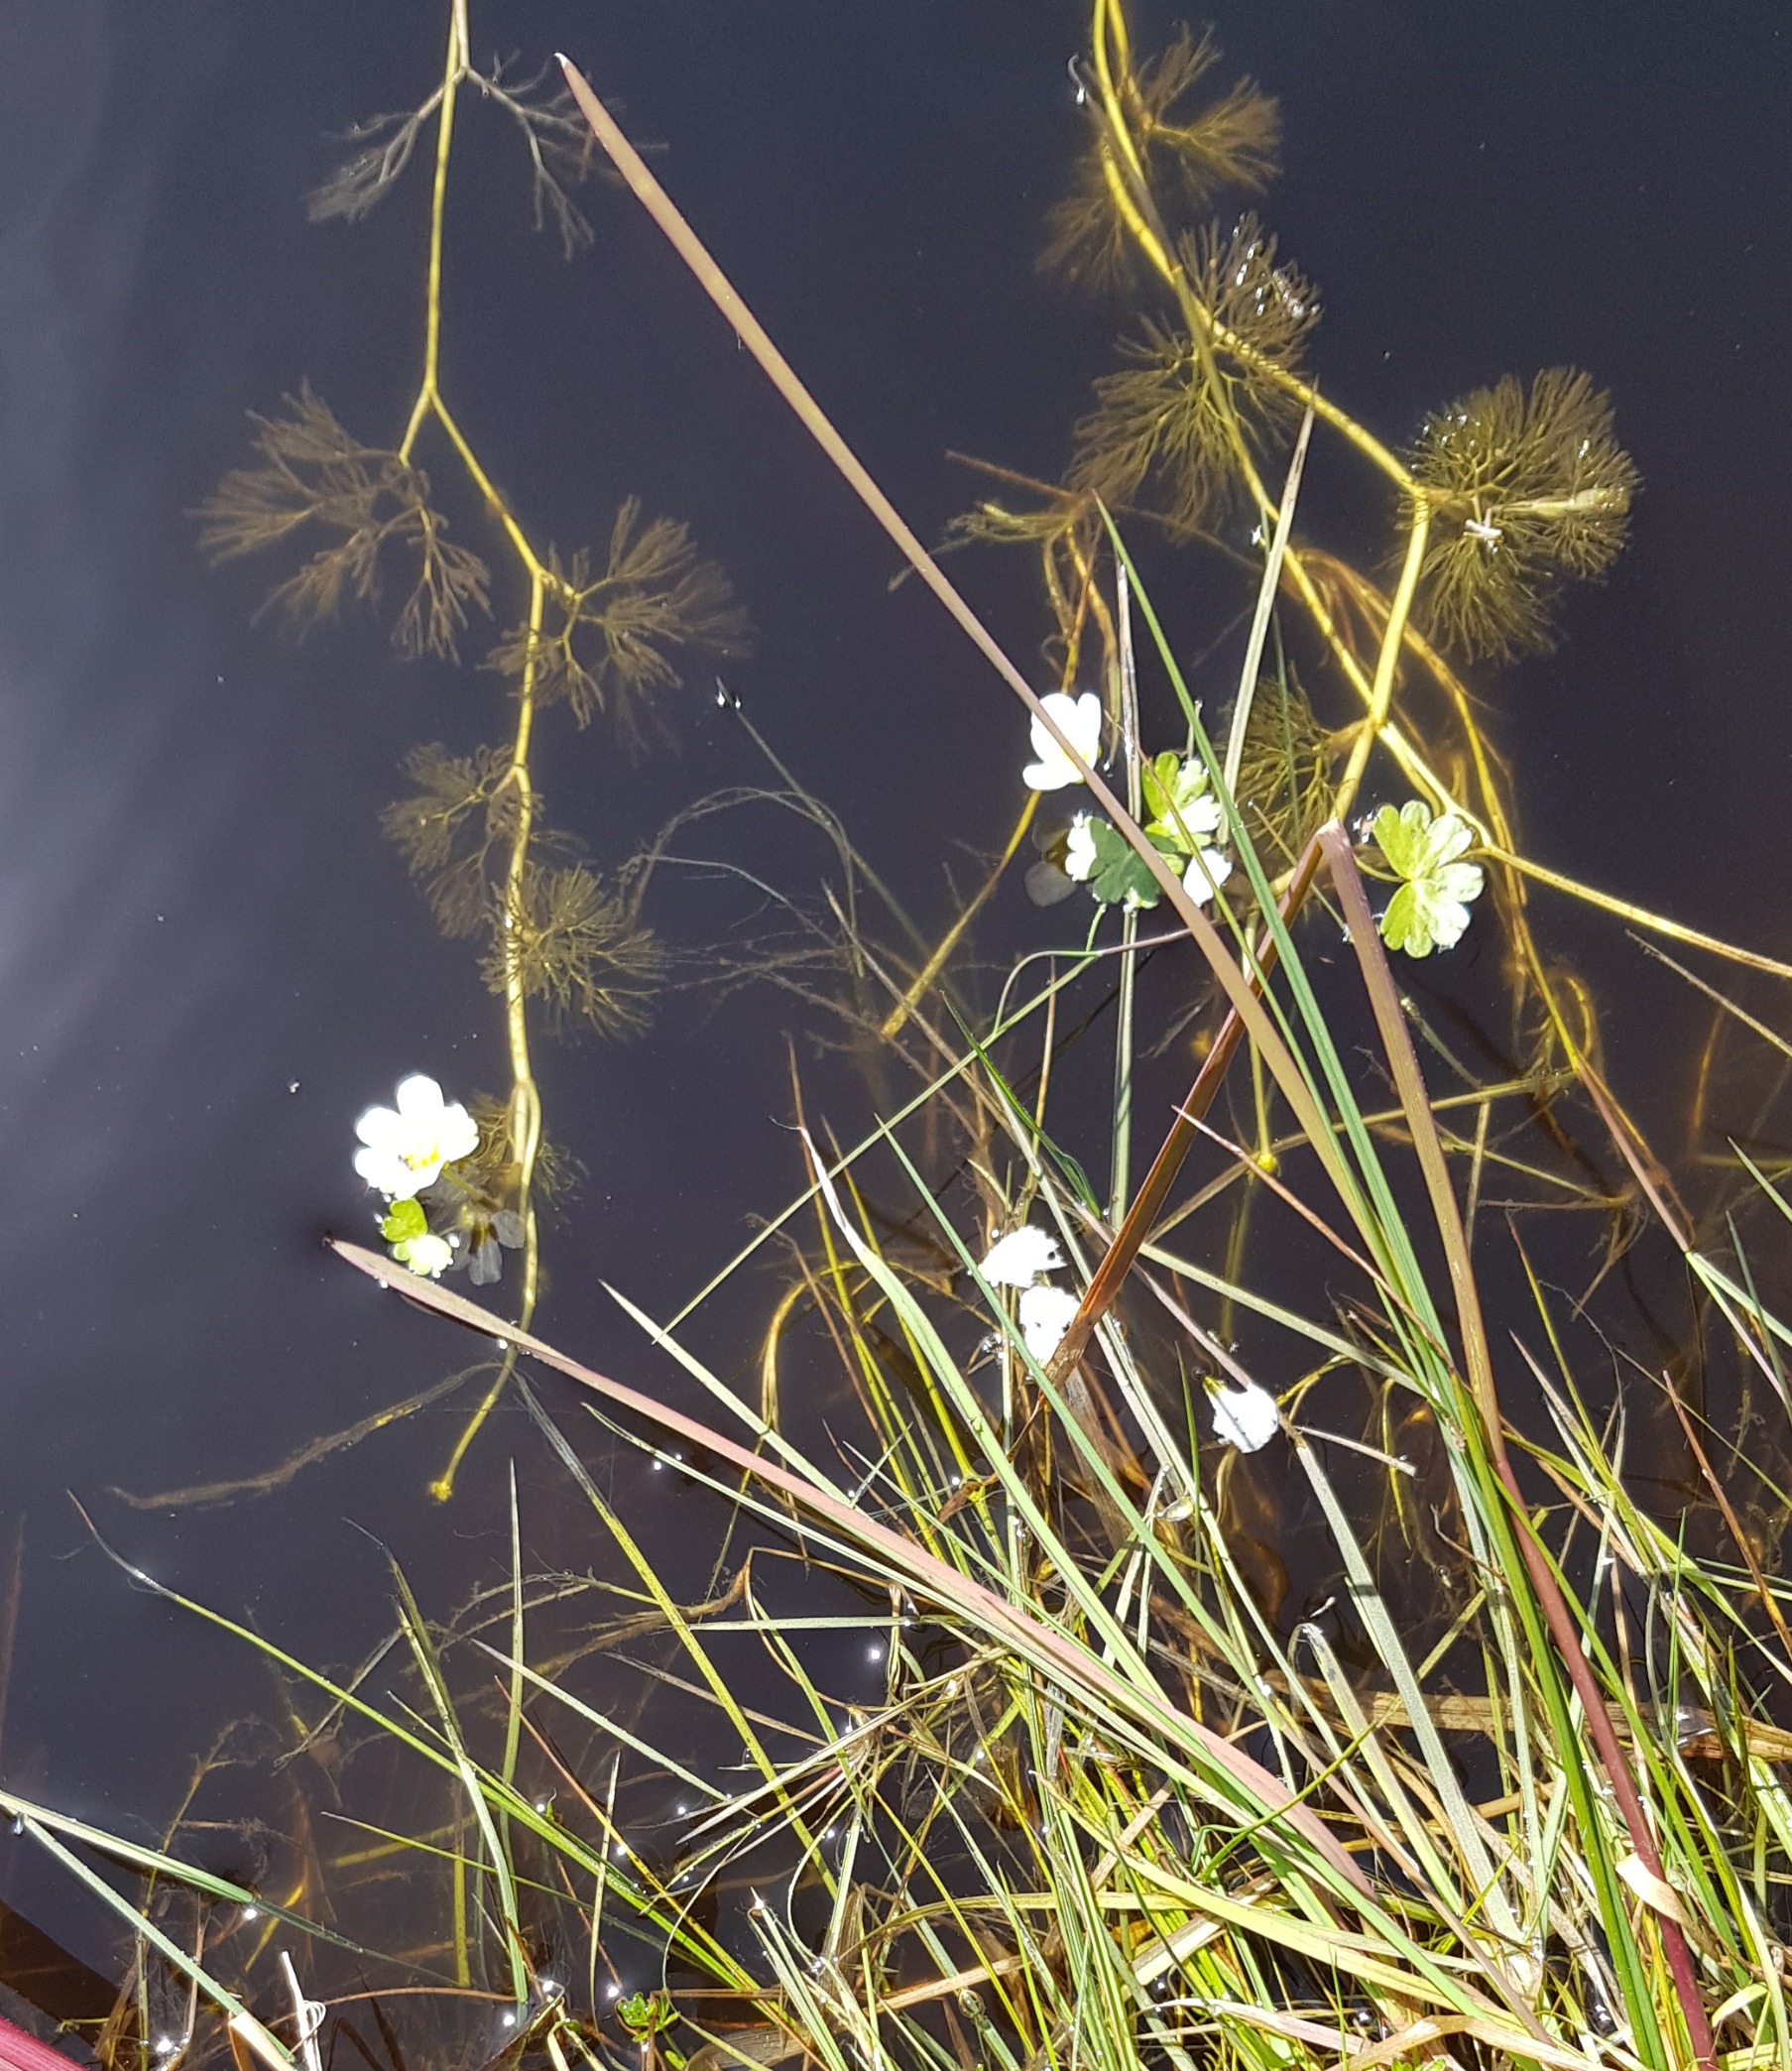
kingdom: Plantae
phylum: Tracheophyta
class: Magnoliopsida
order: Ranunculales
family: Ranunculaceae
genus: Ranunculus
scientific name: Ranunculus peltatus
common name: Storblomstret vandranunkel (underart)
